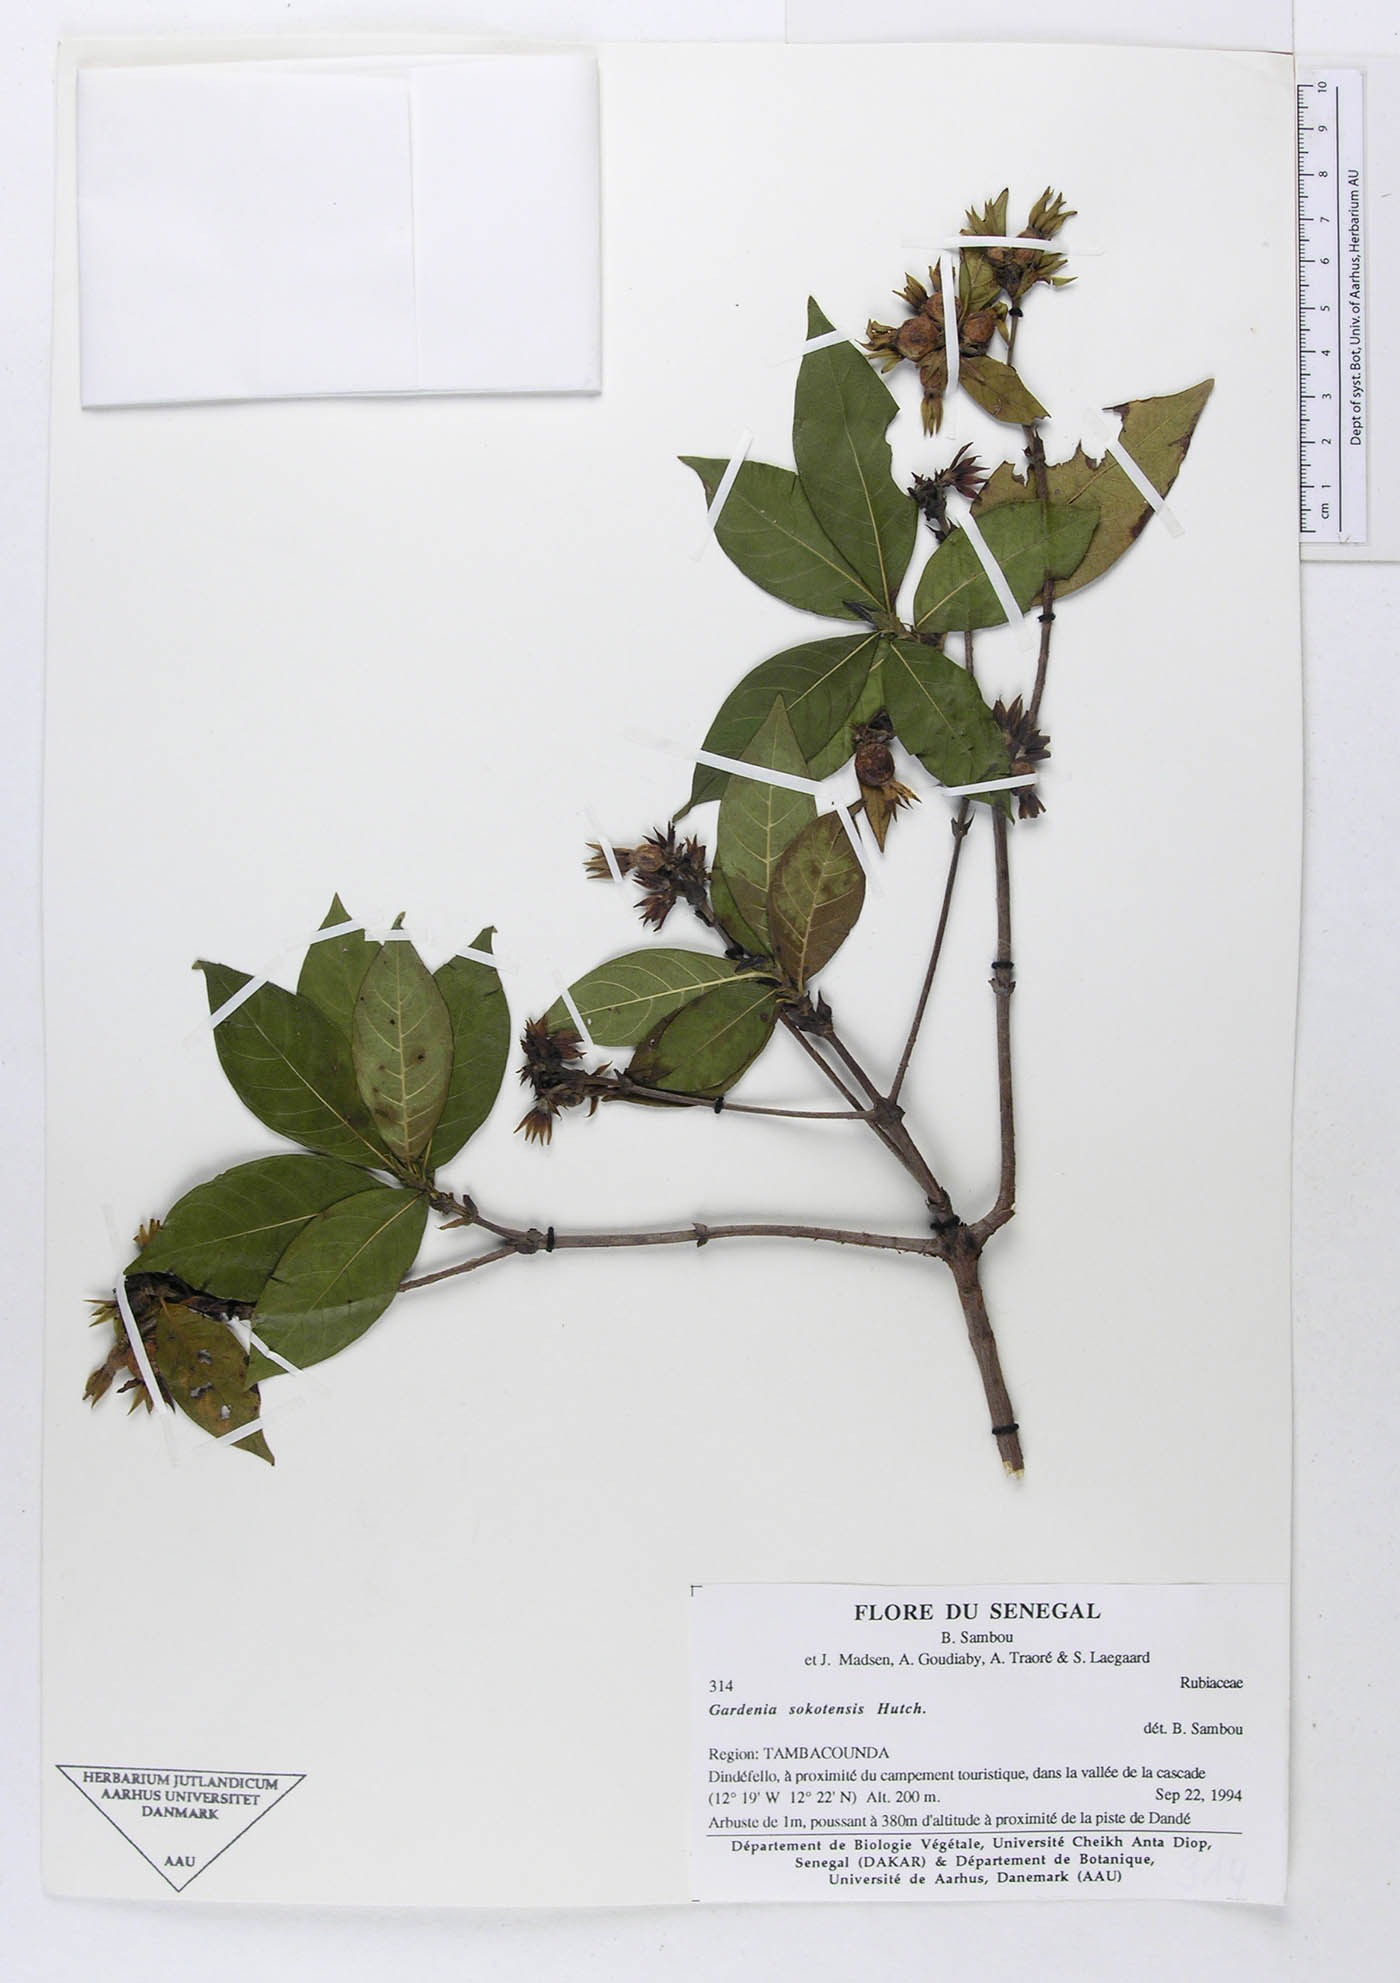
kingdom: Plantae
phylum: Tracheophyta
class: Magnoliopsida
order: Gentianales
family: Rubiaceae
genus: Leptactina
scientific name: Leptactina
